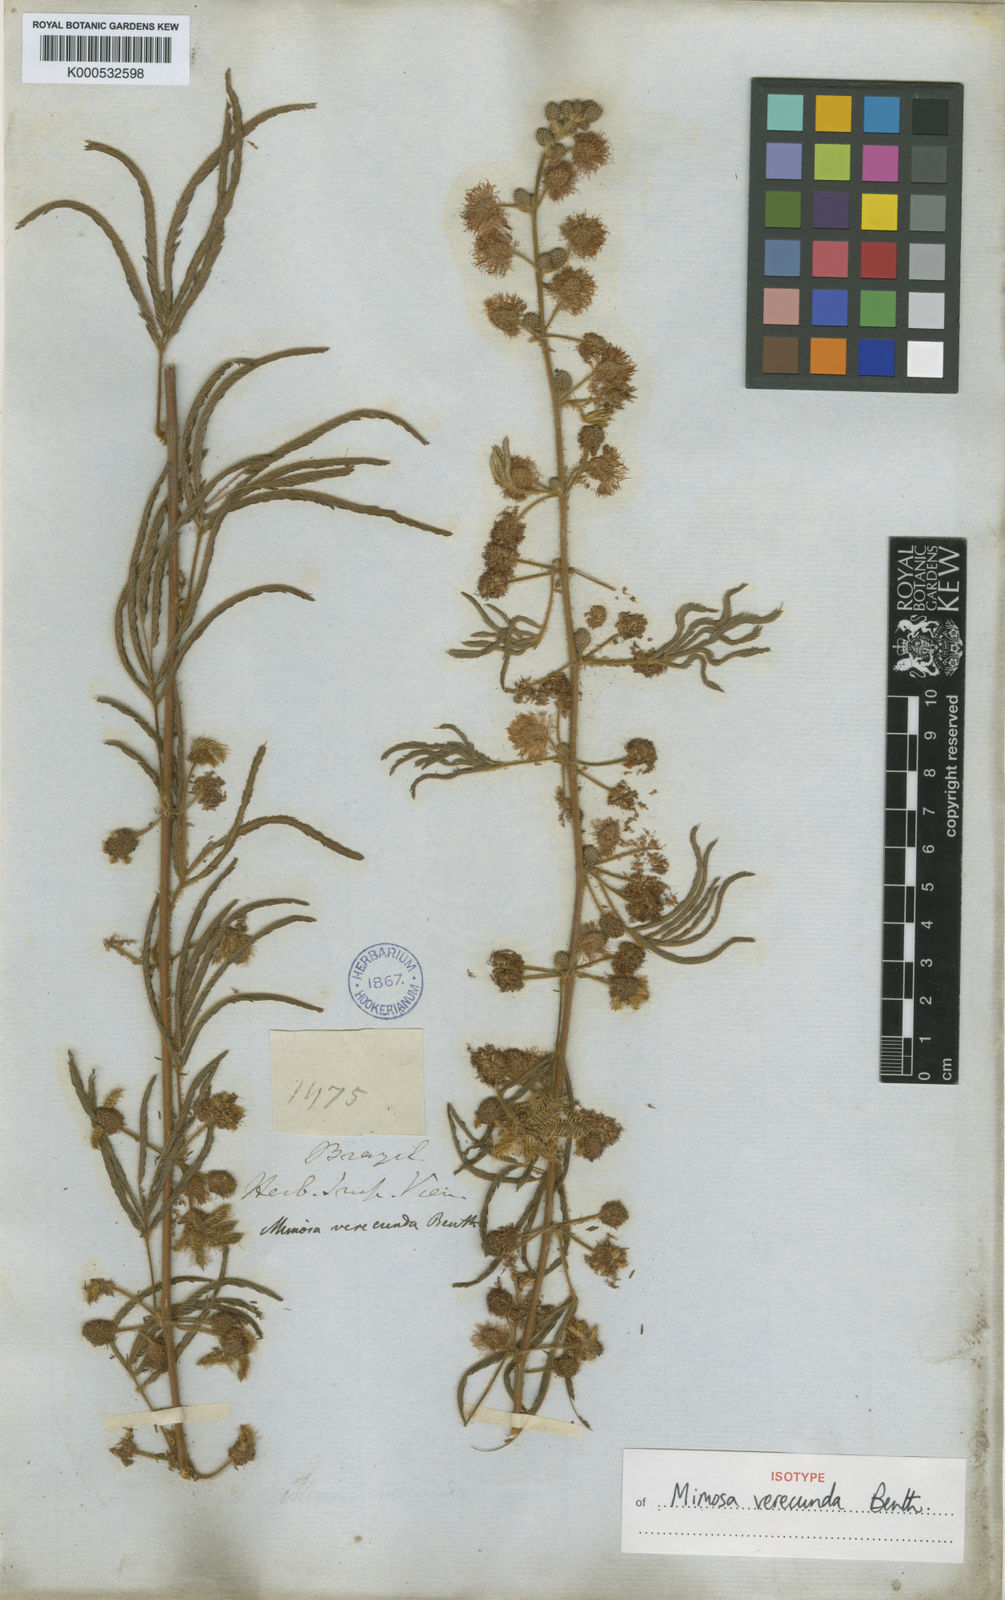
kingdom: Plantae
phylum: Tracheophyta
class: Magnoliopsida
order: Fabales
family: Fabaceae
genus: Mimosa
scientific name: Mimosa verecunda
